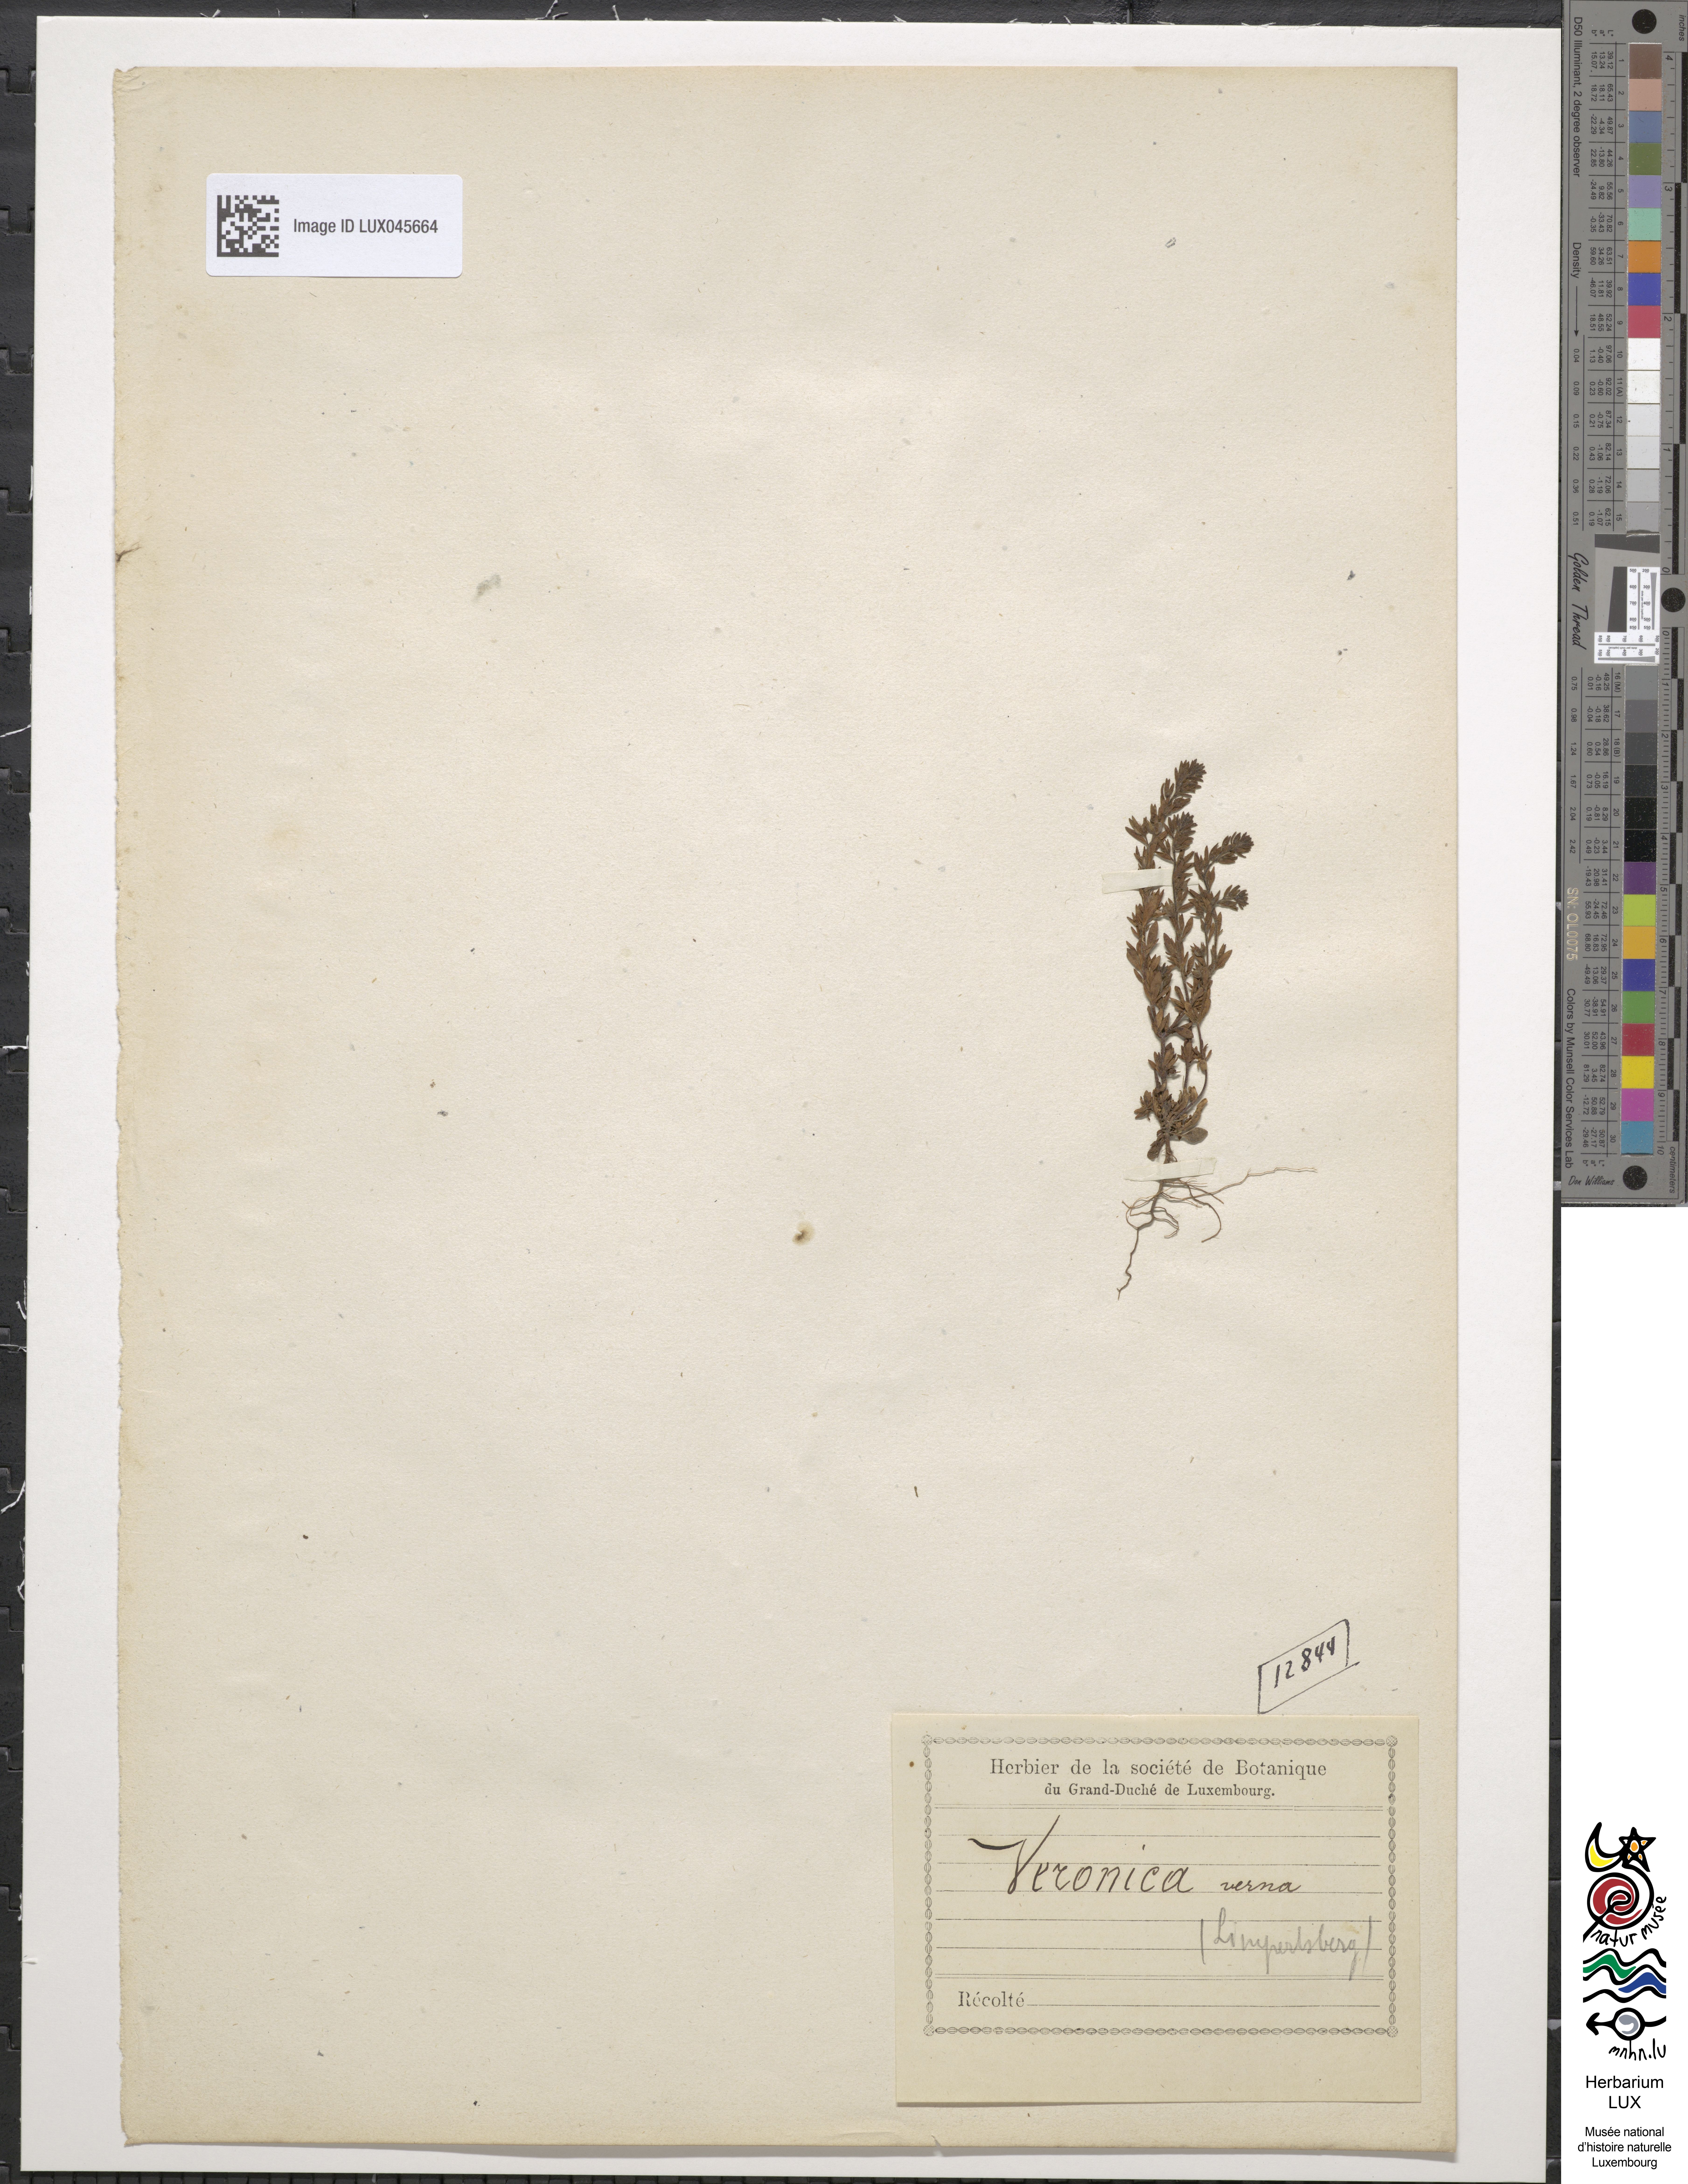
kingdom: Plantae
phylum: Tracheophyta
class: Magnoliopsida
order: Lamiales
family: Plantaginaceae
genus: Veronica
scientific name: Veronica verna
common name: Spring speedwell
